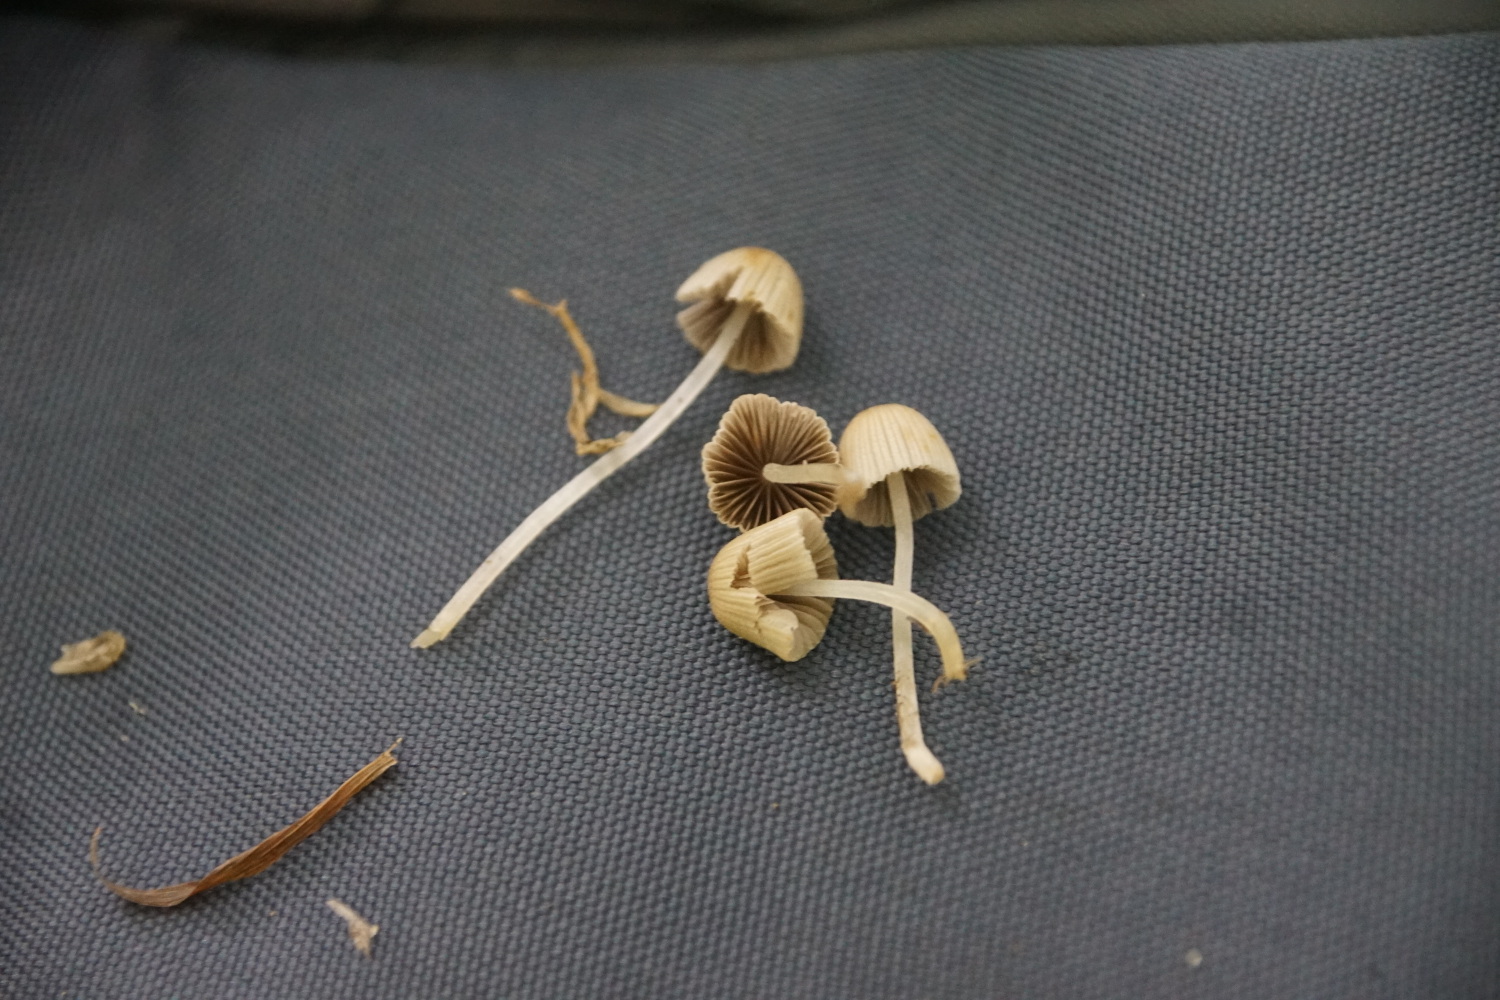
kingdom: Fungi
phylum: Basidiomycota
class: Agaricomycetes
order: Agaricales
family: Psathyrellaceae
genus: Coprinellus
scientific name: Coprinellus disseminatus
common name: bredsået blækhat
